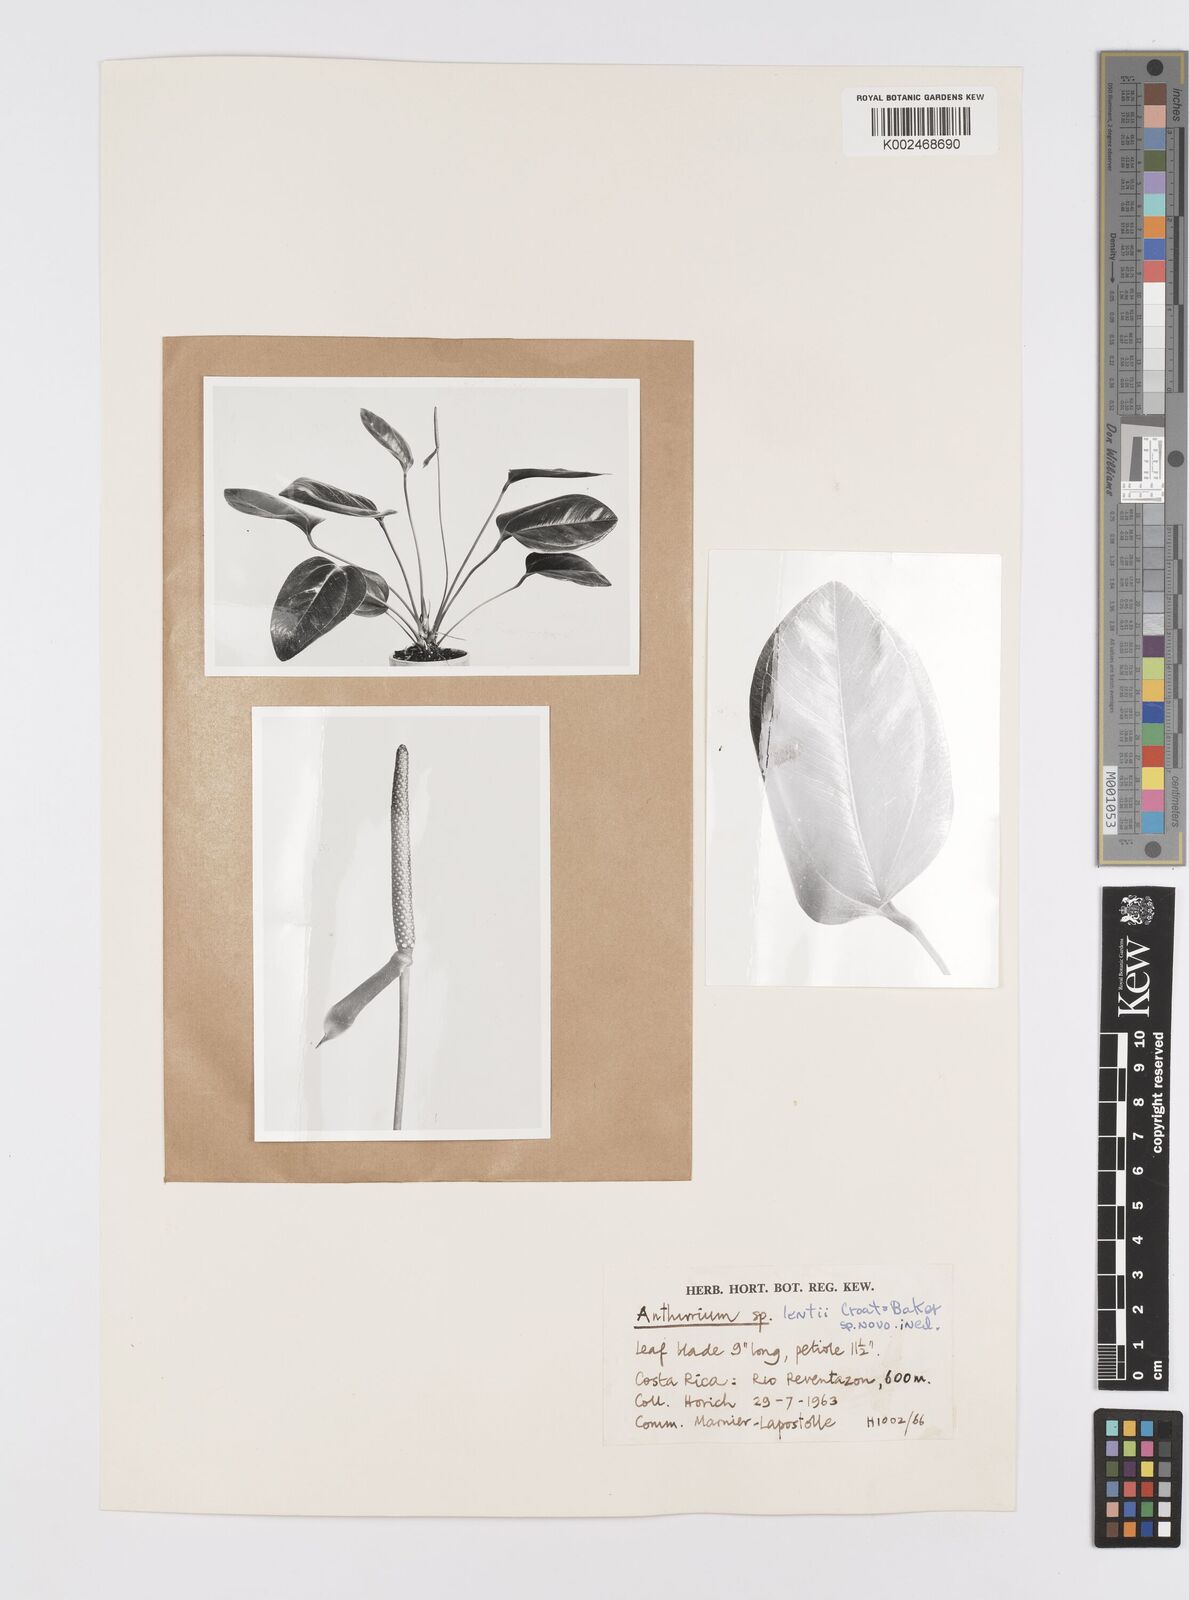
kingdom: Plantae
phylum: Tracheophyta
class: Liliopsida
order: Alismatales
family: Araceae
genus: Anthurium
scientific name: Anthurium lentii
